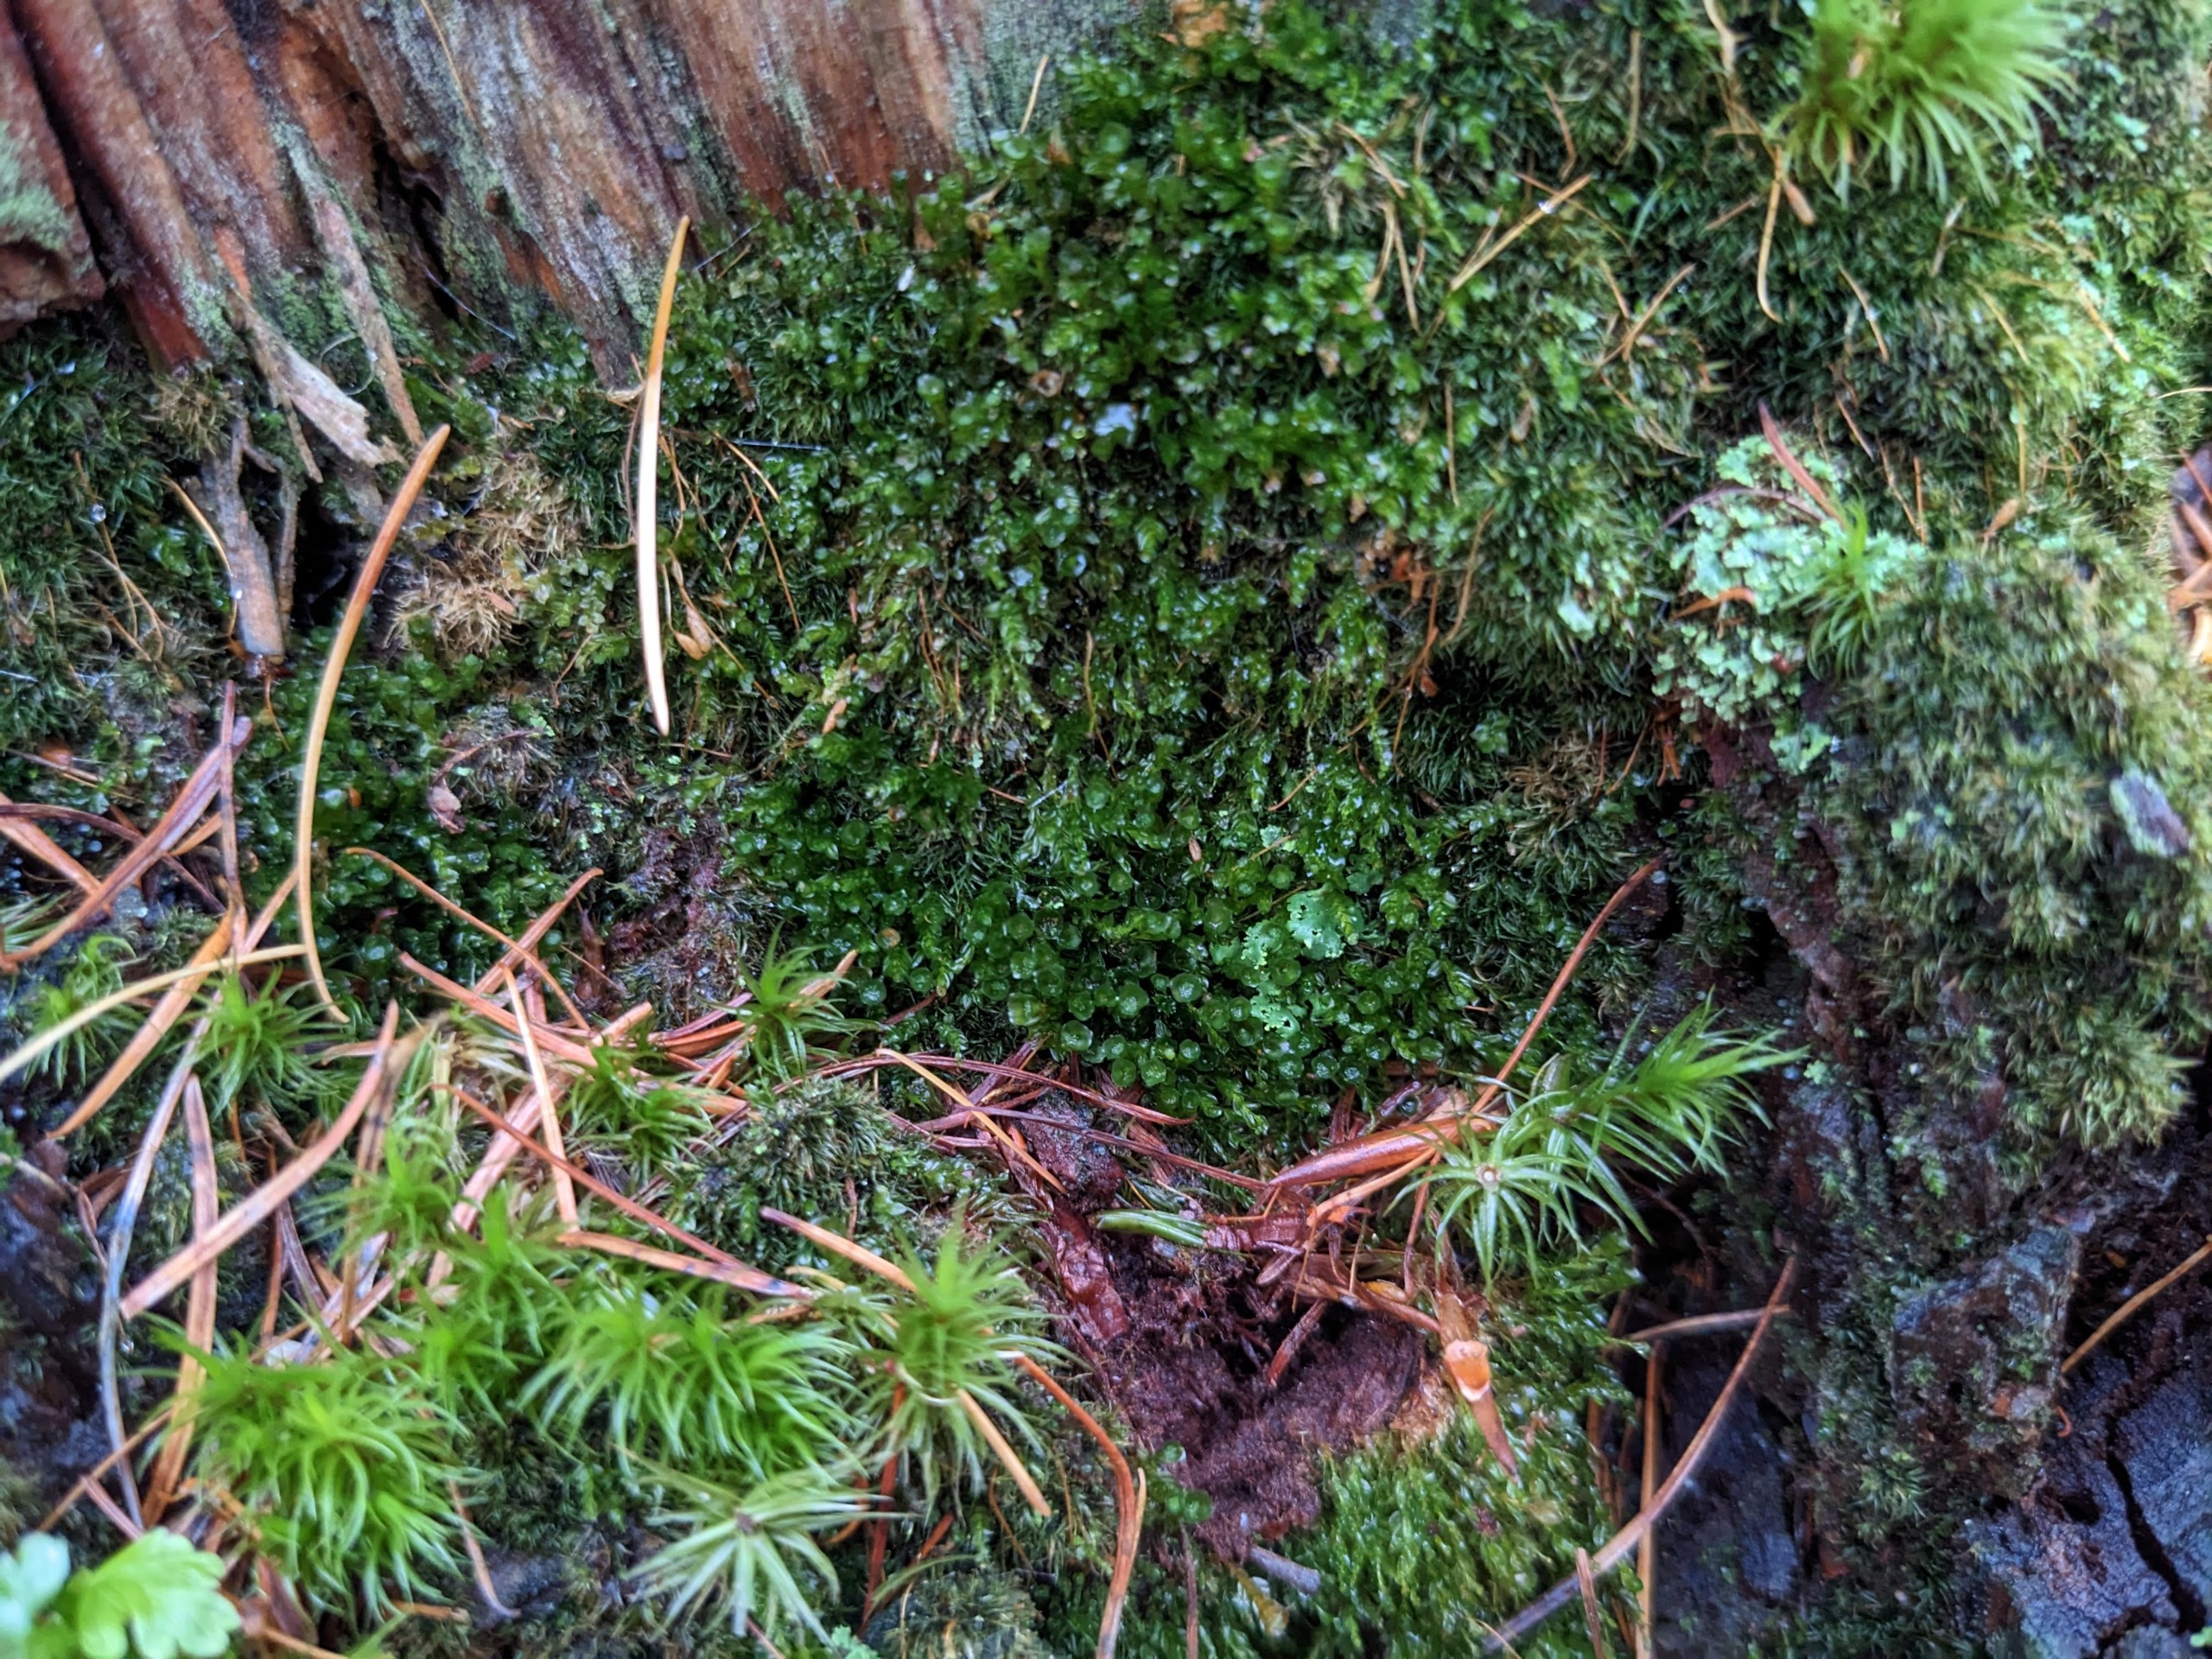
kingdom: Plantae
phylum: Bryophyta
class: Polytrichopsida
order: Tetraphidales
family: Tetraphidaceae
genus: Tetraphis
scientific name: Tetraphis pellucida
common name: Almindelig firtand
